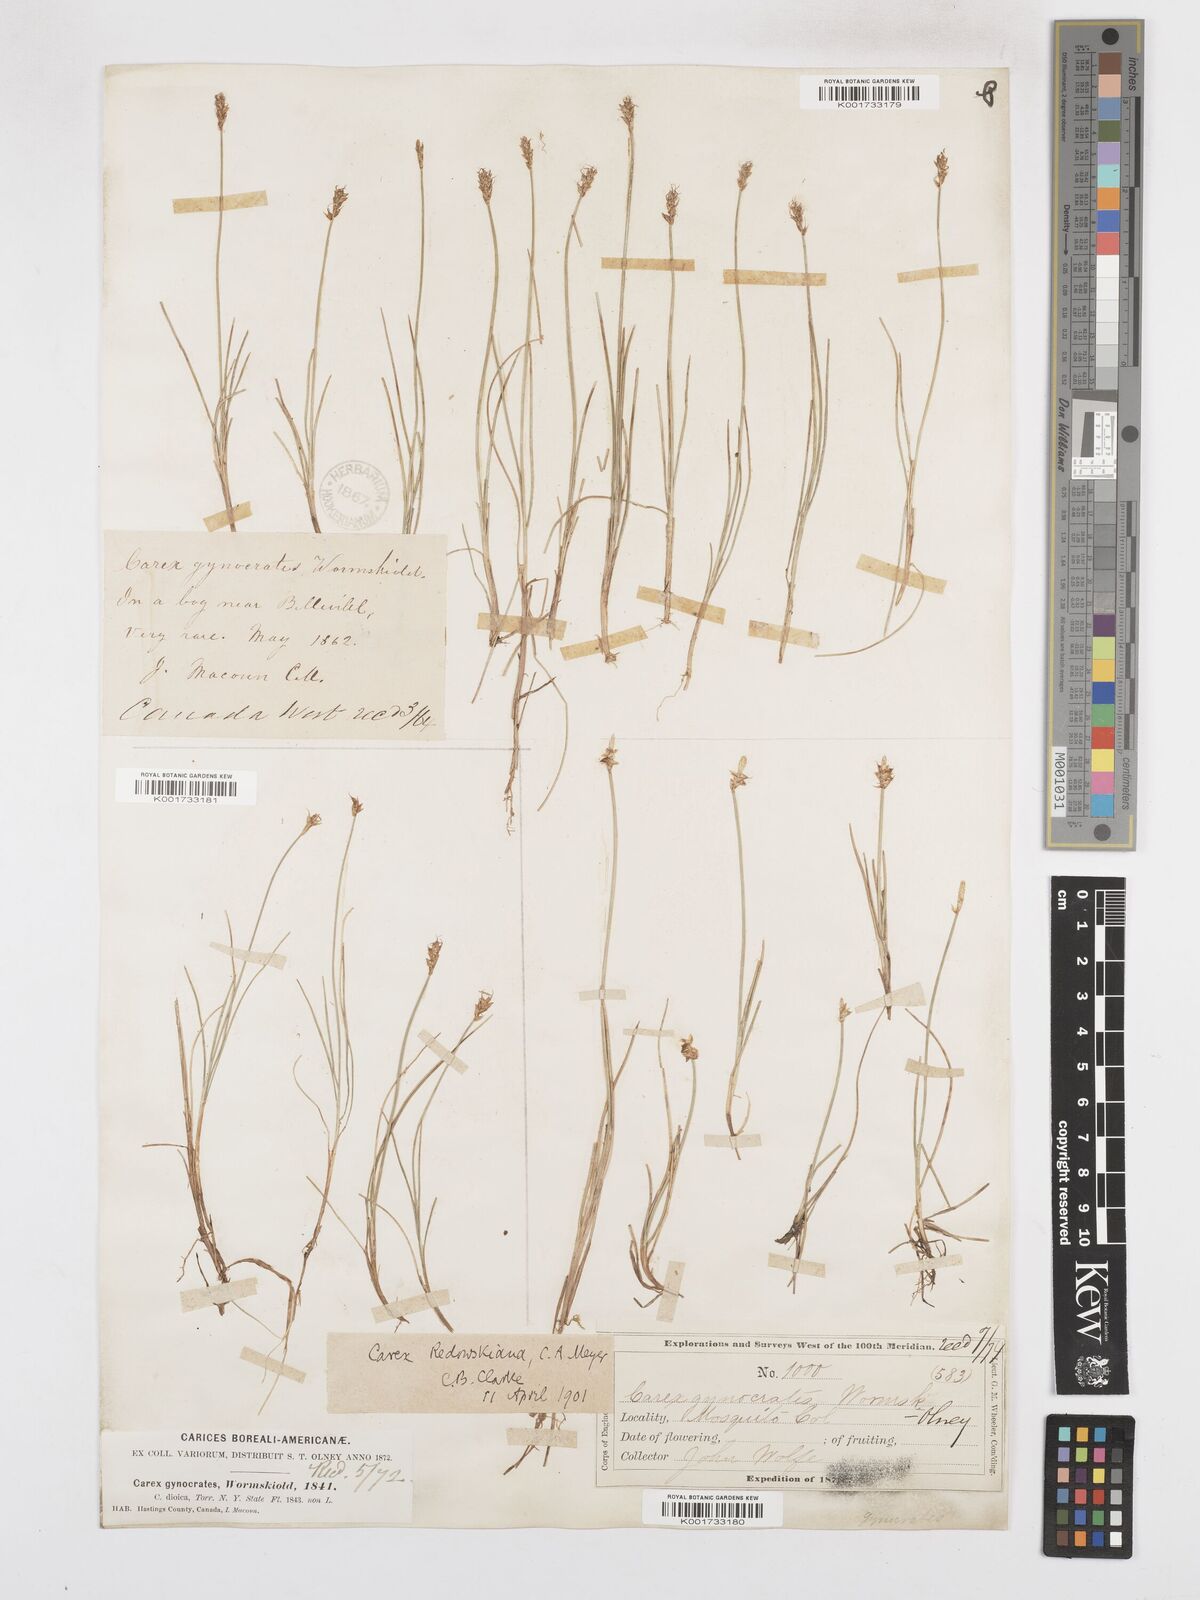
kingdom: Plantae
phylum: Tracheophyta
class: Liliopsida
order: Poales
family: Cyperaceae
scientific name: Cyperaceae
